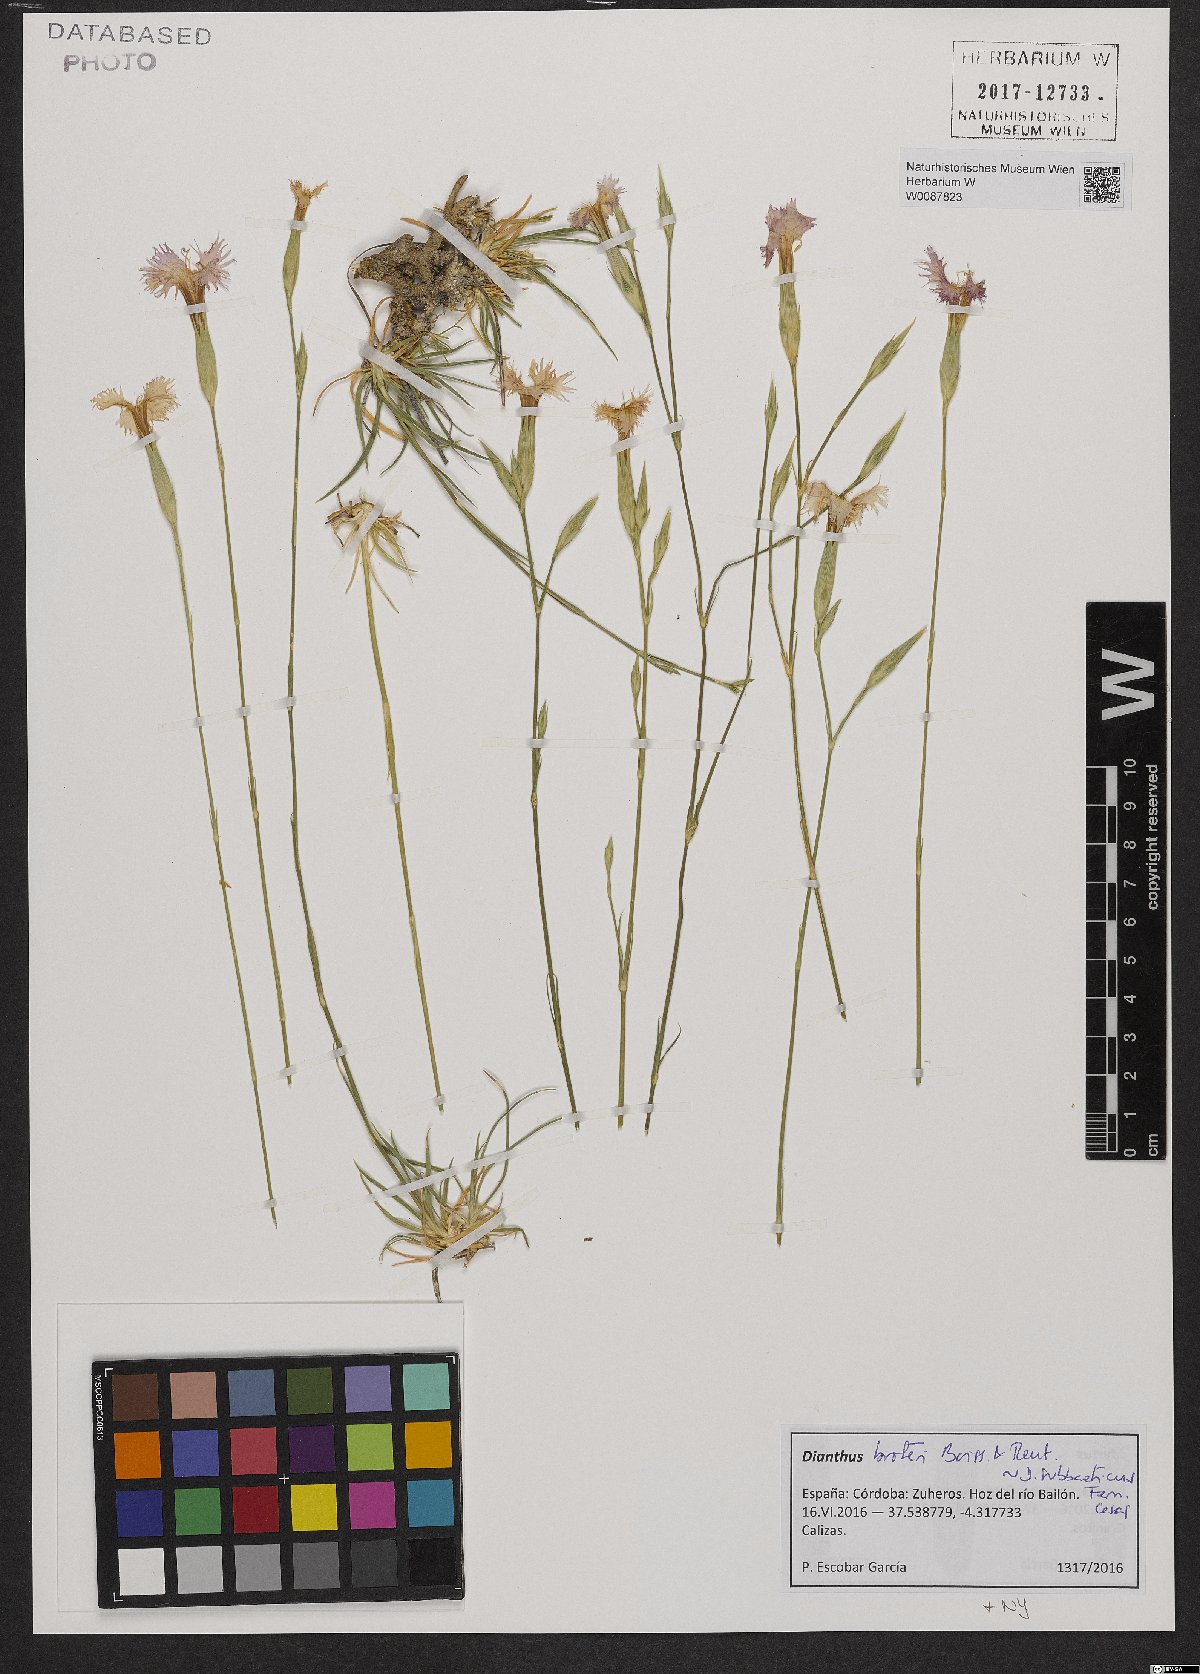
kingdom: Plantae
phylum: Tracheophyta
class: Magnoliopsida
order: Caryophyllales
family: Caryophyllaceae
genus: Dianthus
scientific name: Dianthus broteri
